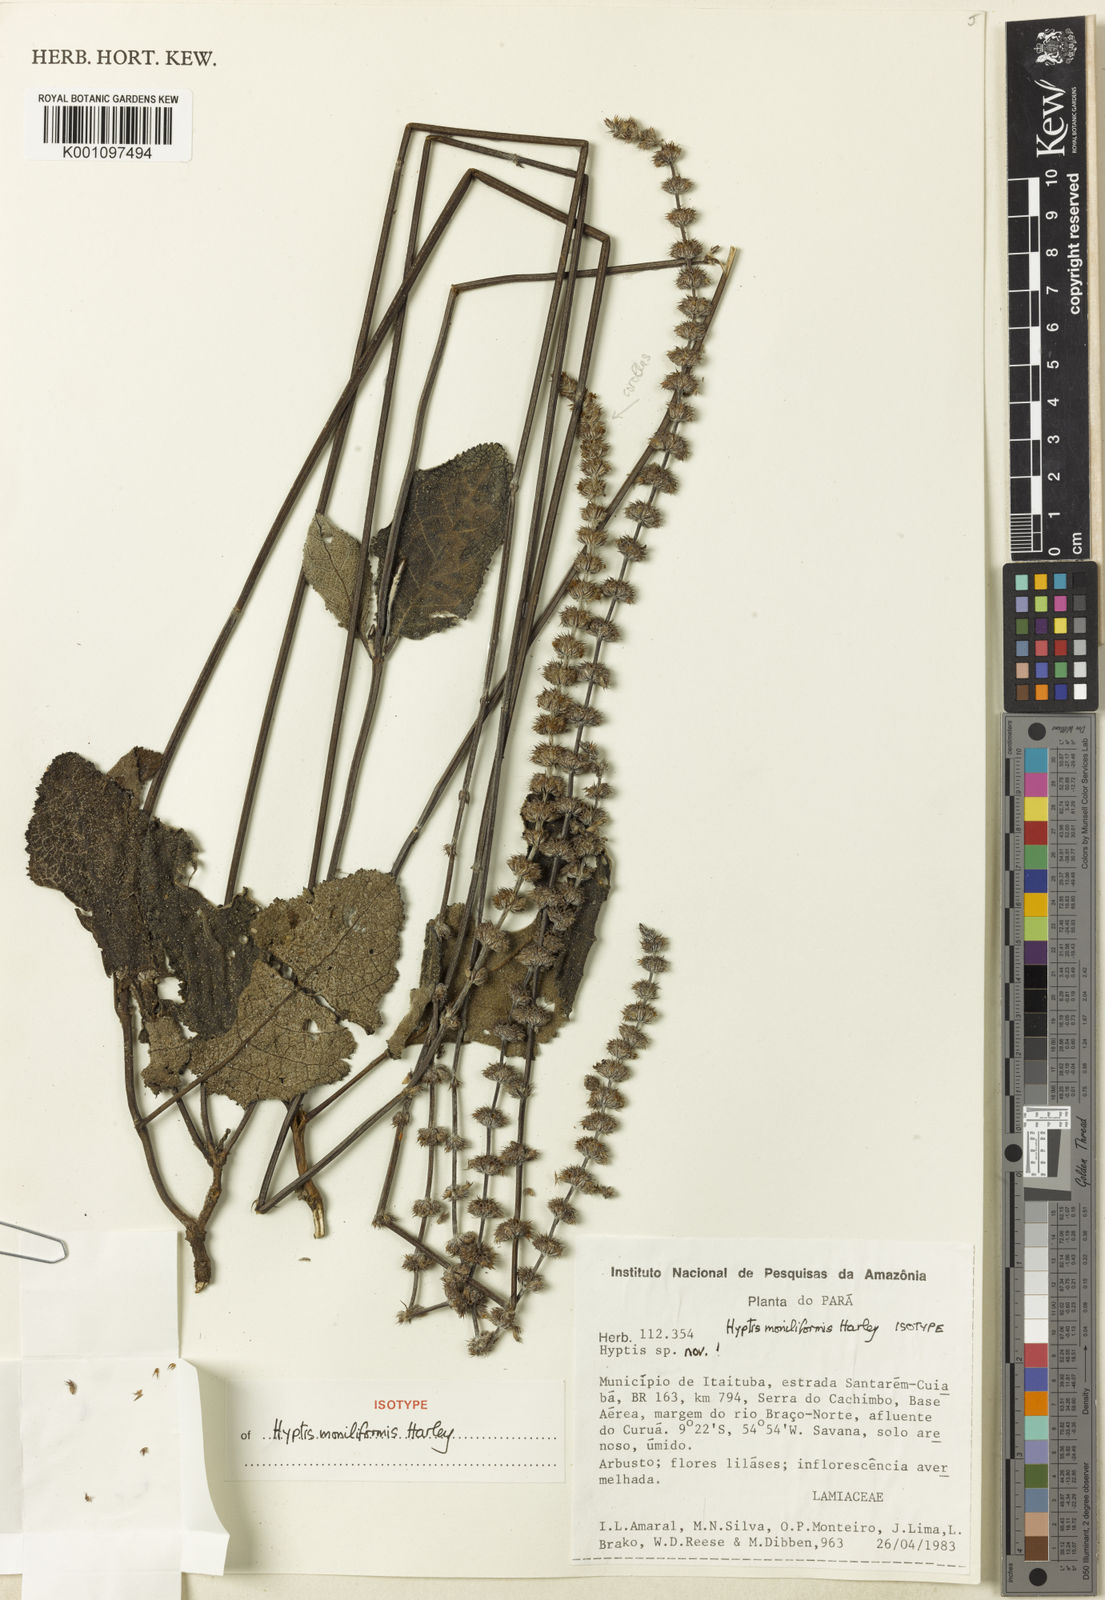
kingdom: Plantae
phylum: Tracheophyta
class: Magnoliopsida
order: Lamiales
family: Lamiaceae
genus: Gymneia
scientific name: Gymneia moniliformis
